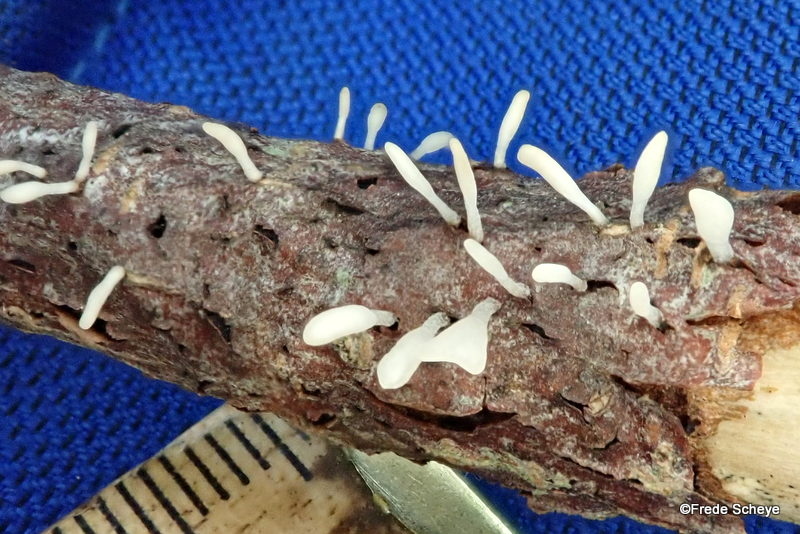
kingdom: Fungi
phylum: Basidiomycota
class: Agaricomycetes
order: Agaricales
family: Typhulaceae
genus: Typhula
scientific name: Typhula spathulata
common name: aske-trådkølle
